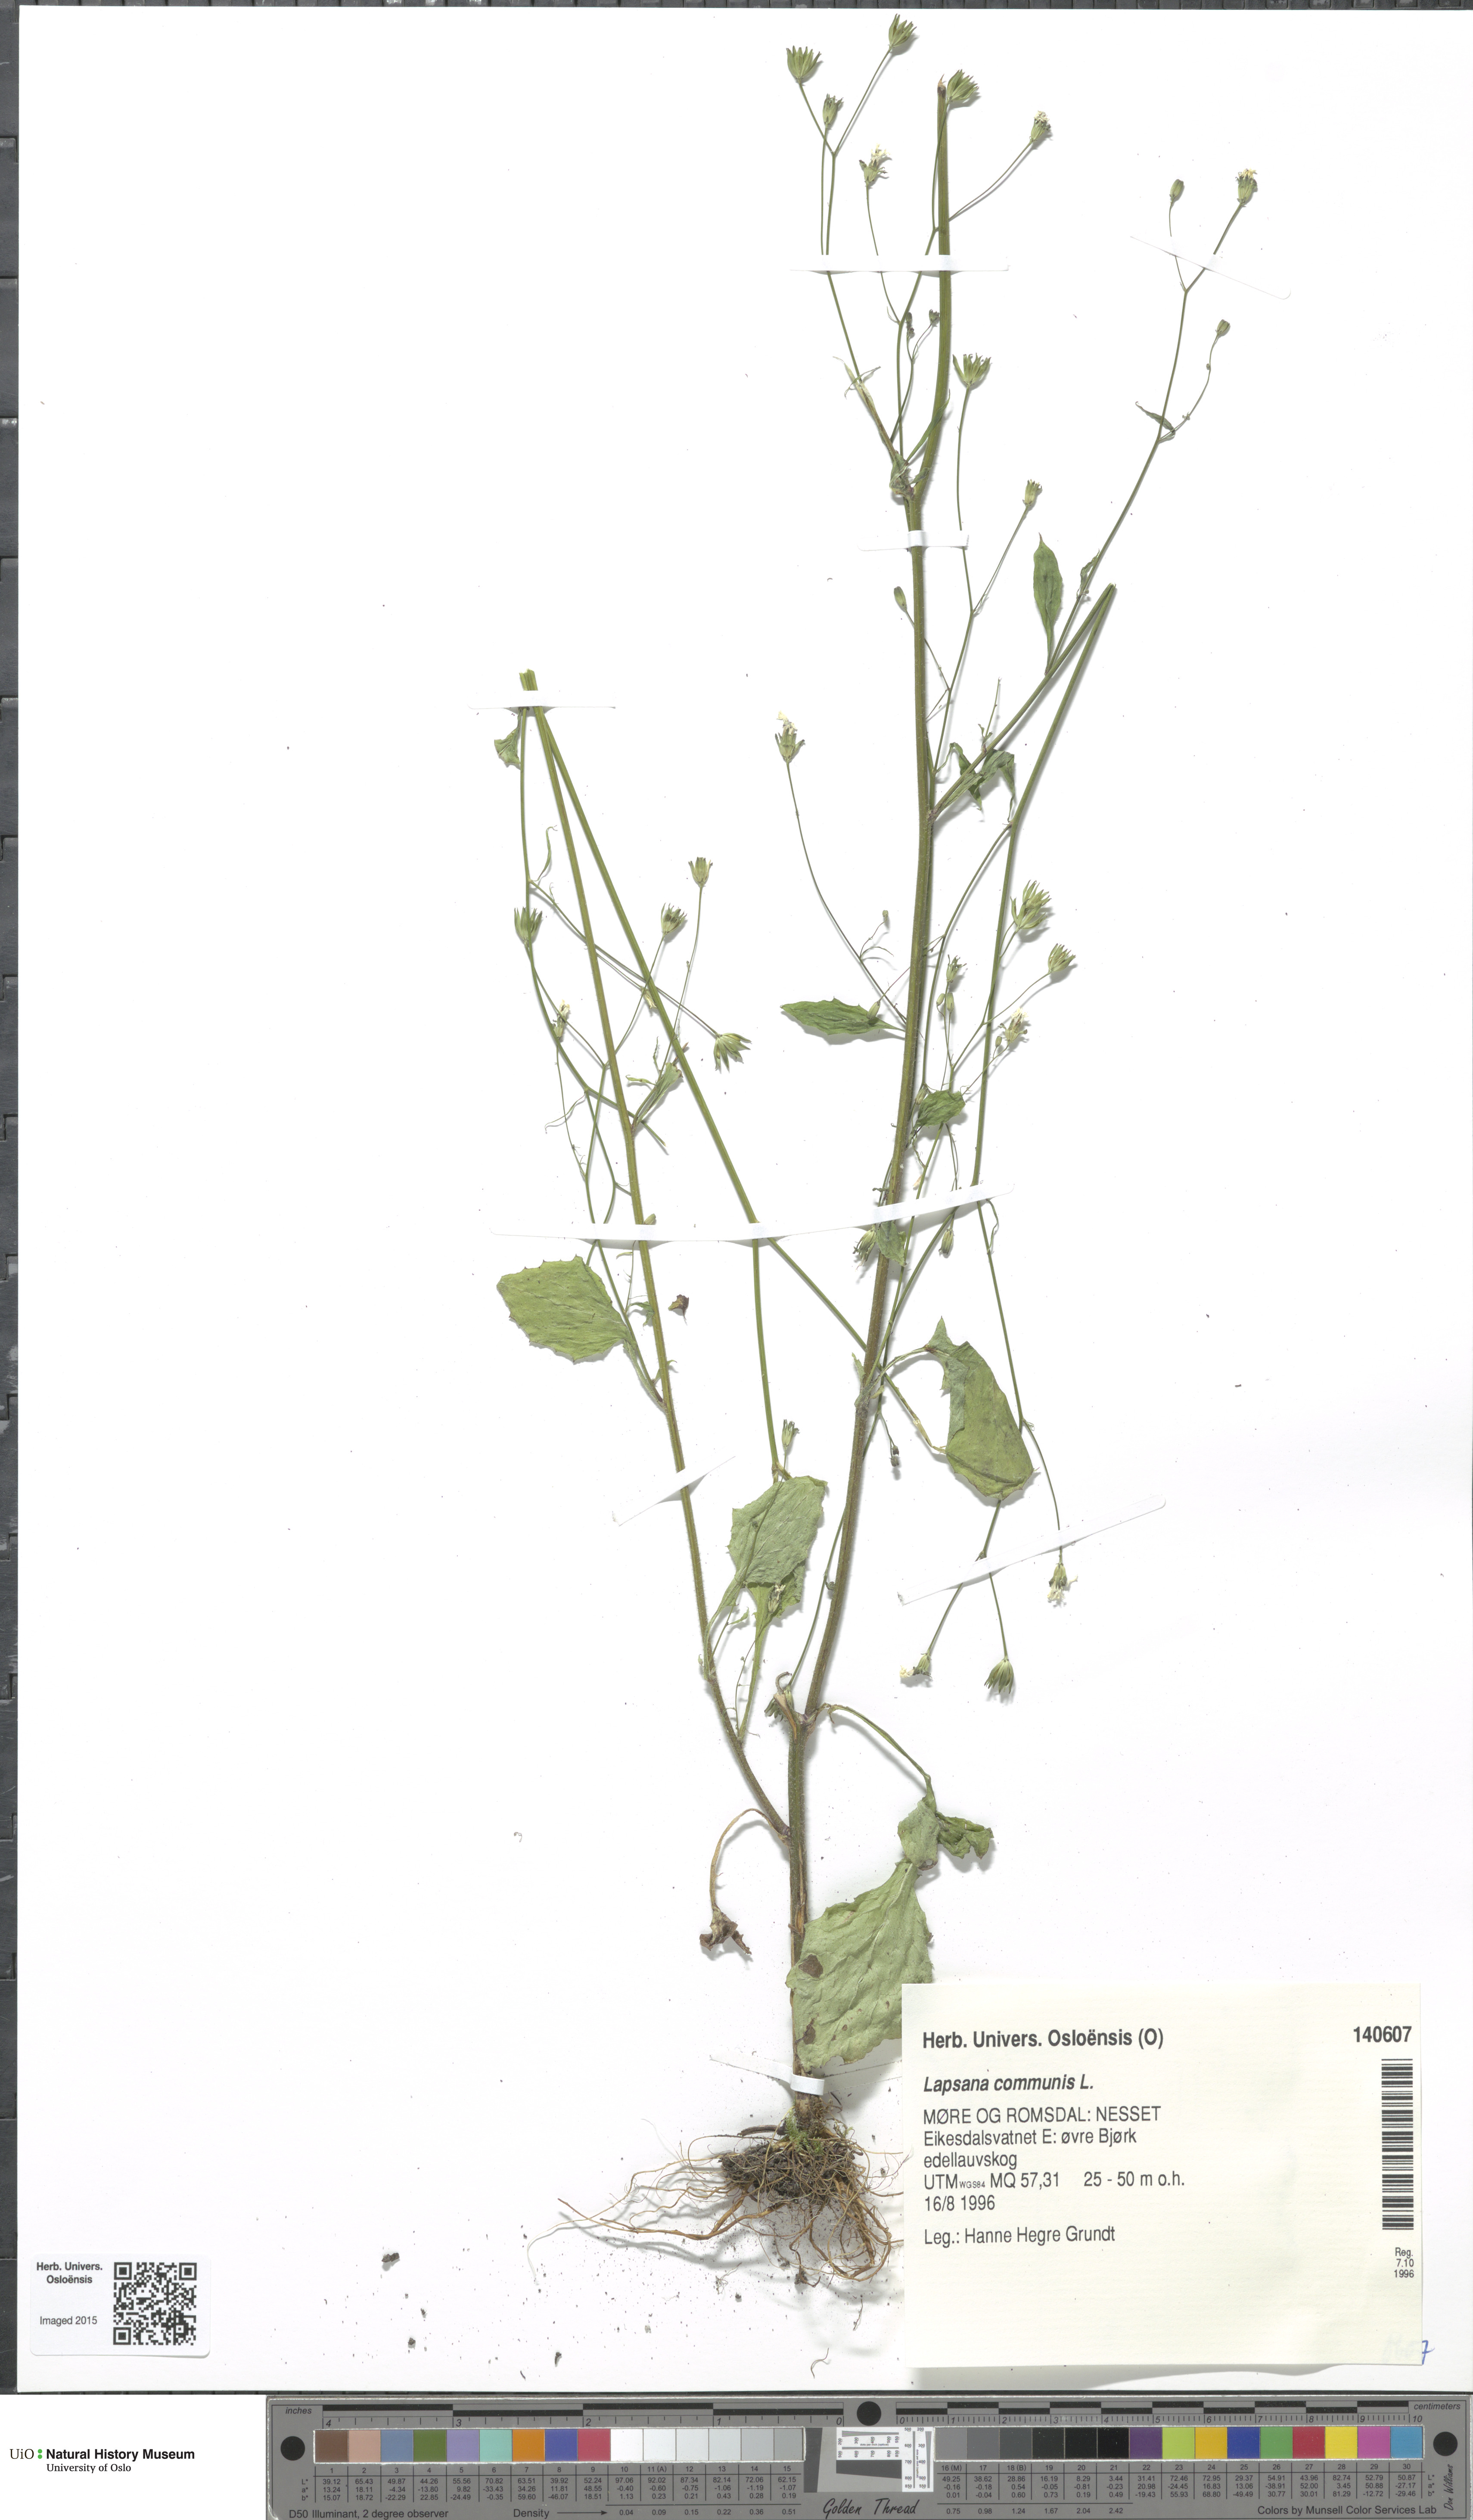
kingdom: Plantae
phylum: Tracheophyta
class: Magnoliopsida
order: Asterales
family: Asteraceae
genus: Lapsana
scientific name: Lapsana communis
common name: Nipplewort
